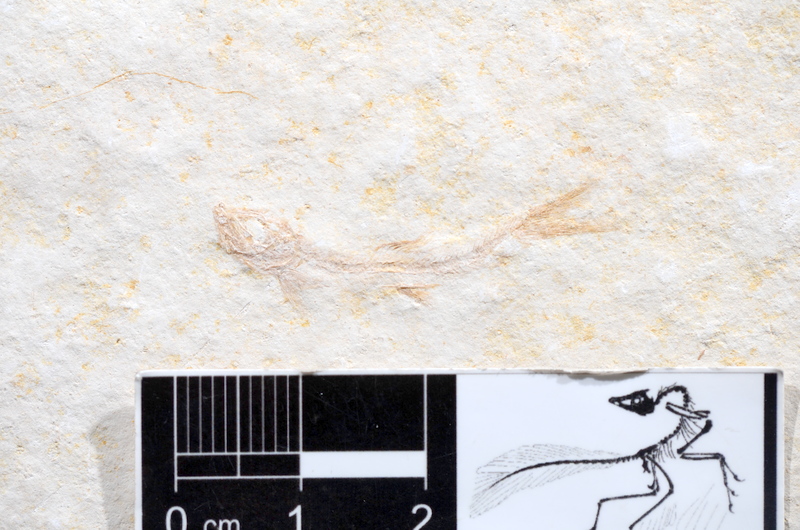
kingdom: Animalia
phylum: Chordata
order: Salmoniformes
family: Orthogonikleithridae
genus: Leptolepides
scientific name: Leptolepides sprattiformis
